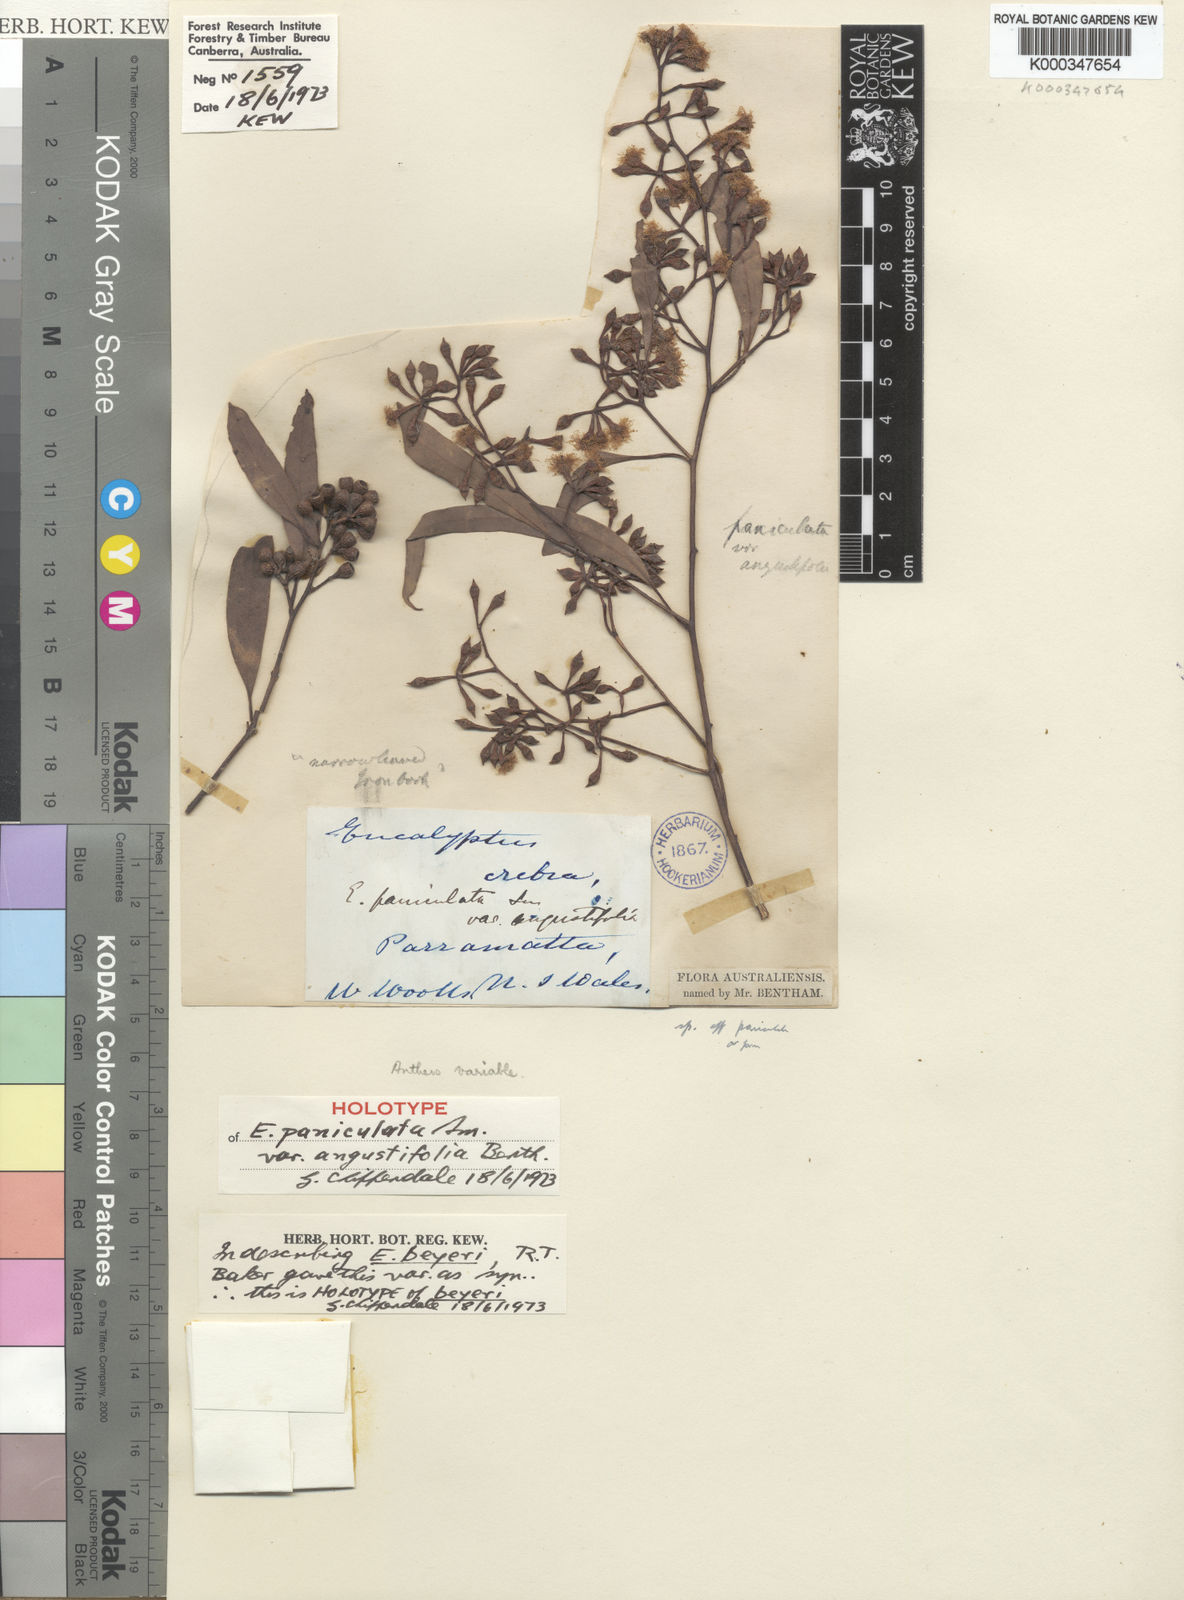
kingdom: Plantae
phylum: Tracheophyta
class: Magnoliopsida
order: Myrtales
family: Myrtaceae
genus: Eucalyptus
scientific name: Eucalyptus beyeri
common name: Beyer's ironbark
